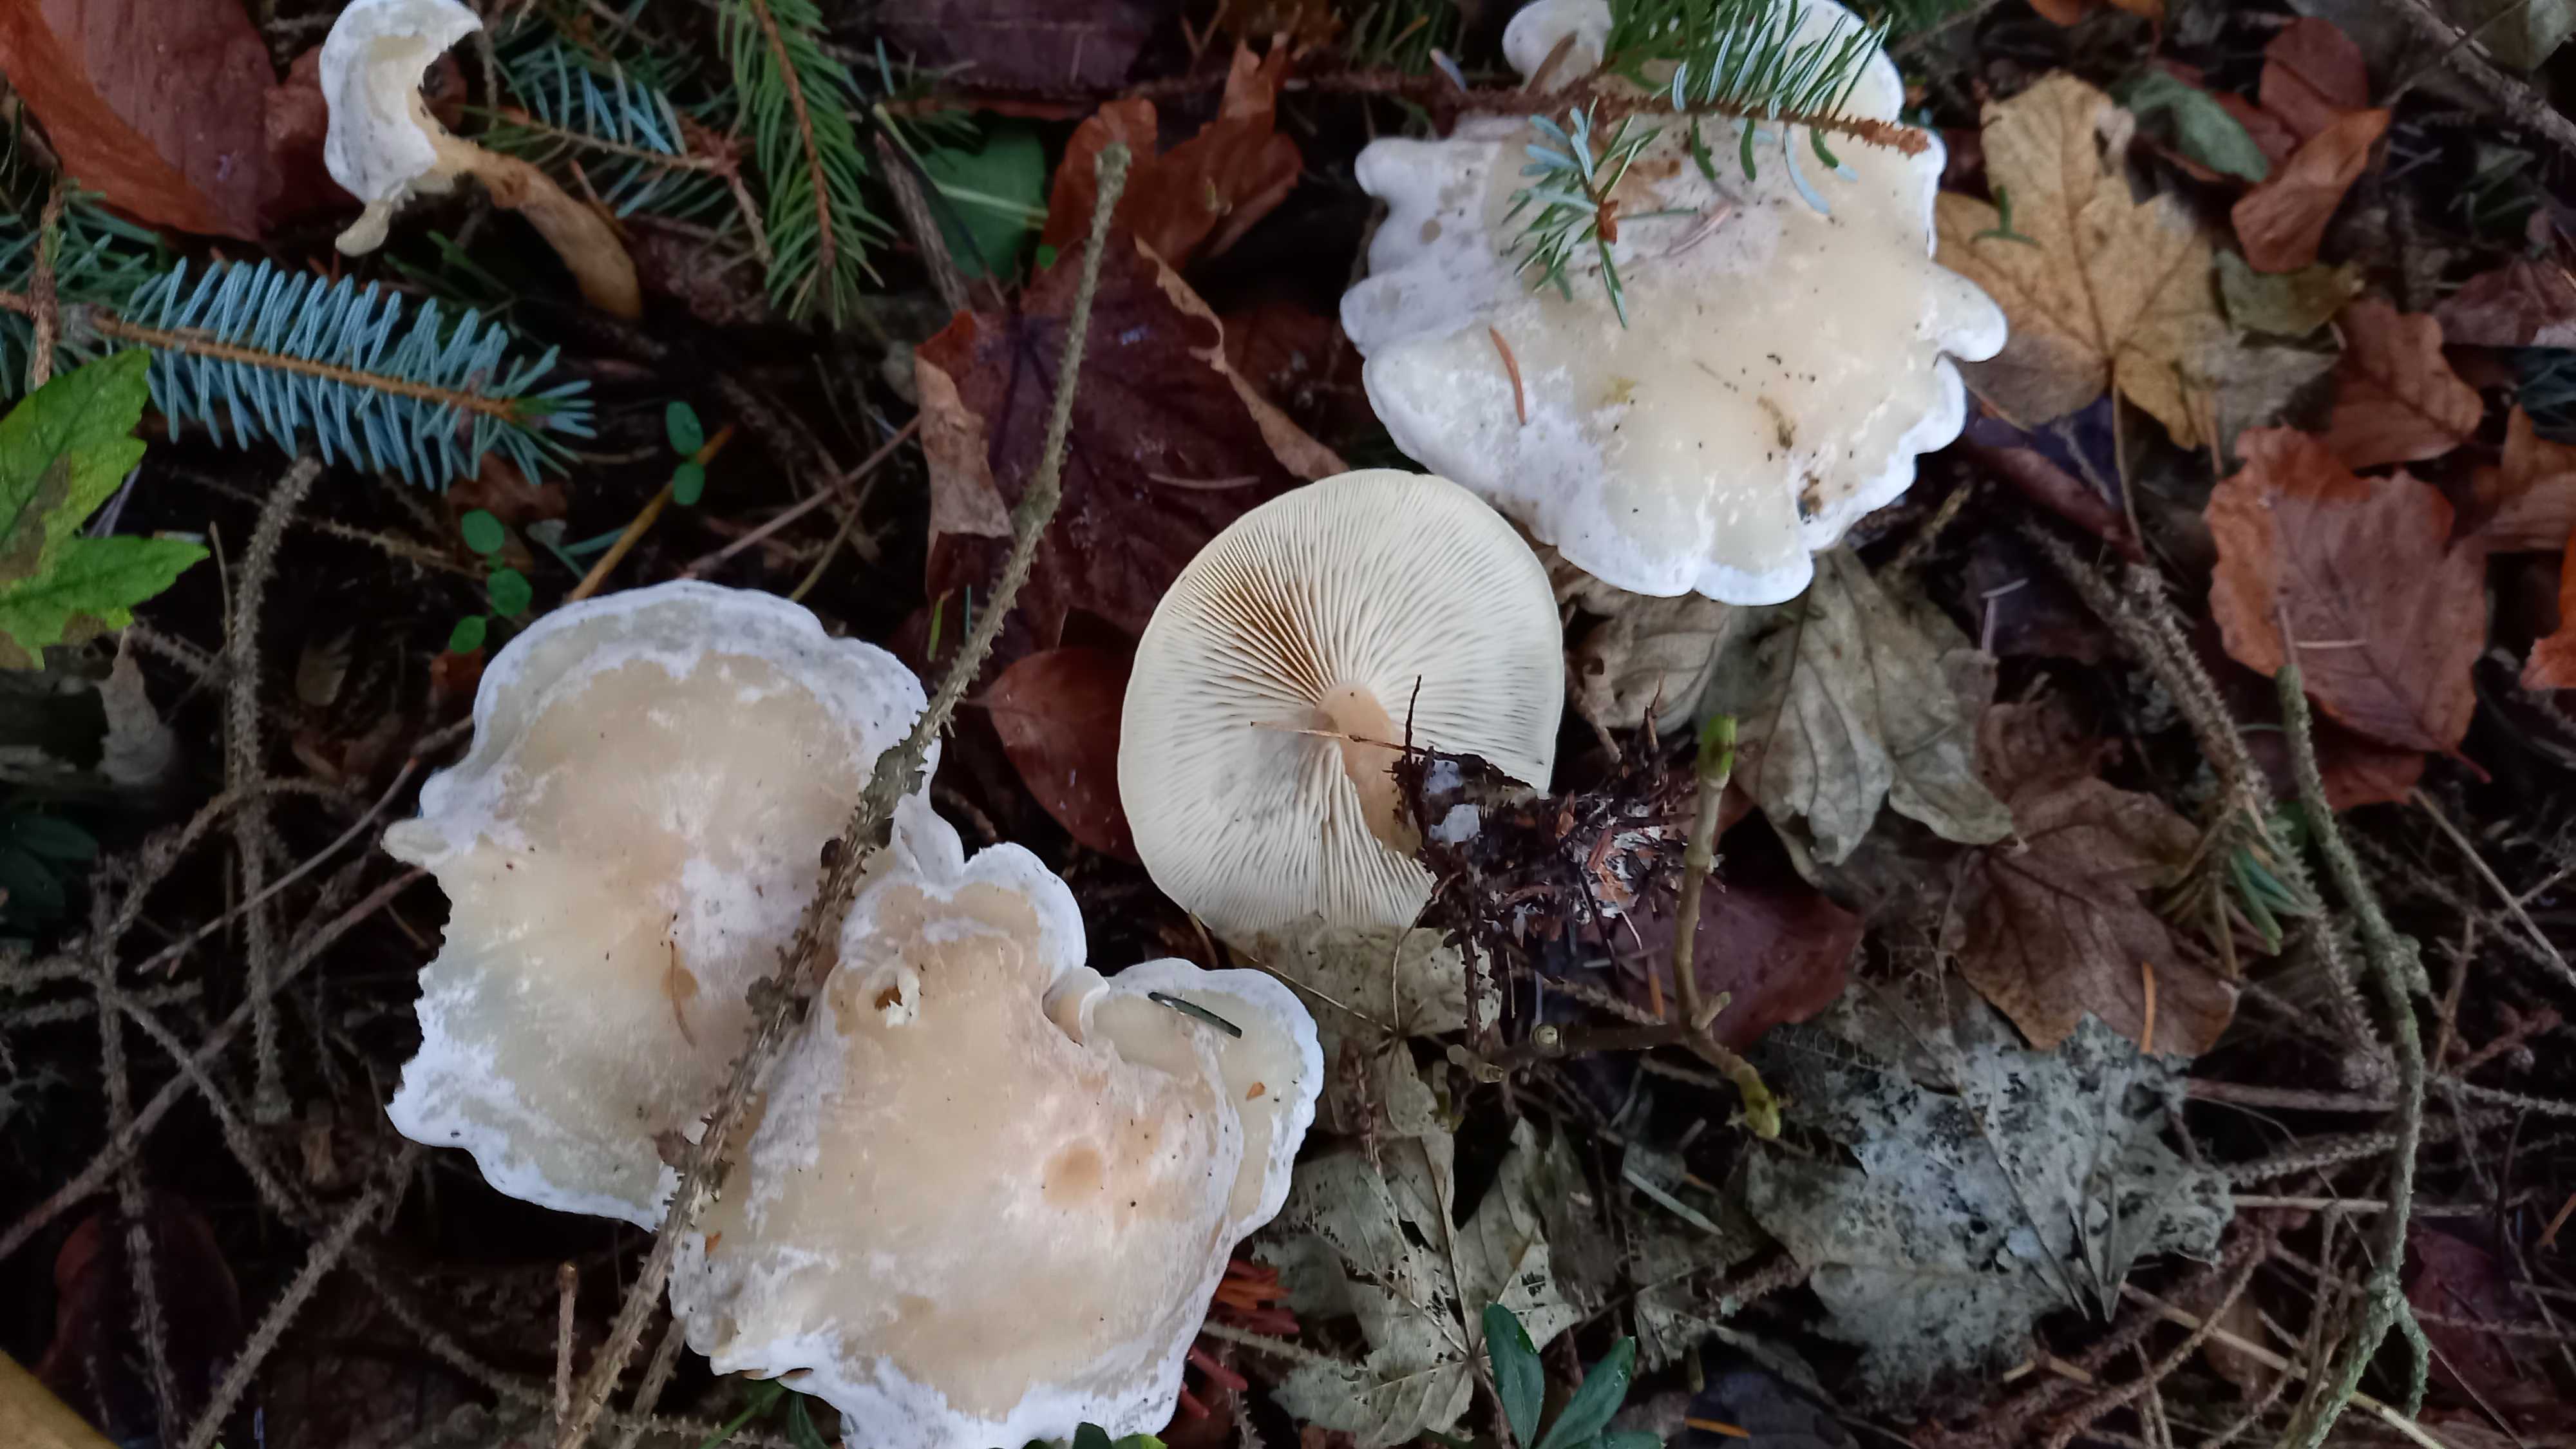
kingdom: Fungi
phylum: Basidiomycota
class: Agaricomycetes
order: Agaricales
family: Tricholomataceae
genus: Clitocybe
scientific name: Clitocybe phyllophila
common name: løv-tragthat
